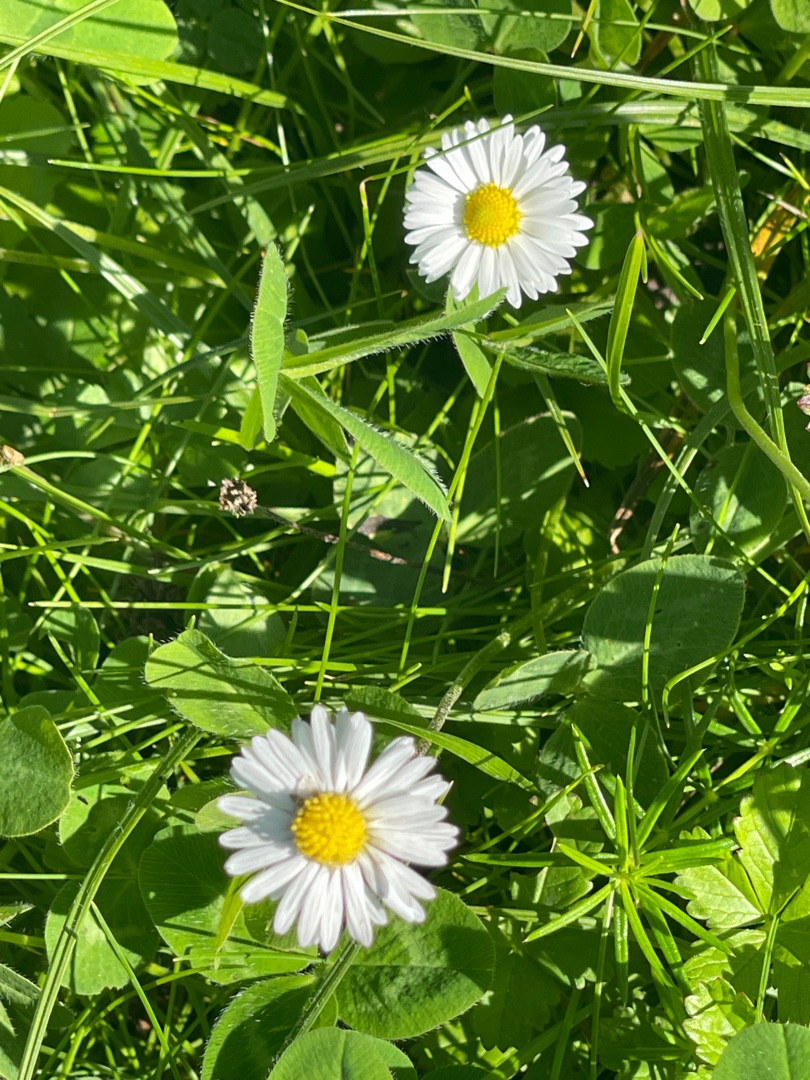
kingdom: Plantae
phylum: Tracheophyta
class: Magnoliopsida
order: Asterales
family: Asteraceae
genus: Bellis
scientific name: Bellis perennis
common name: Tusindfryd
